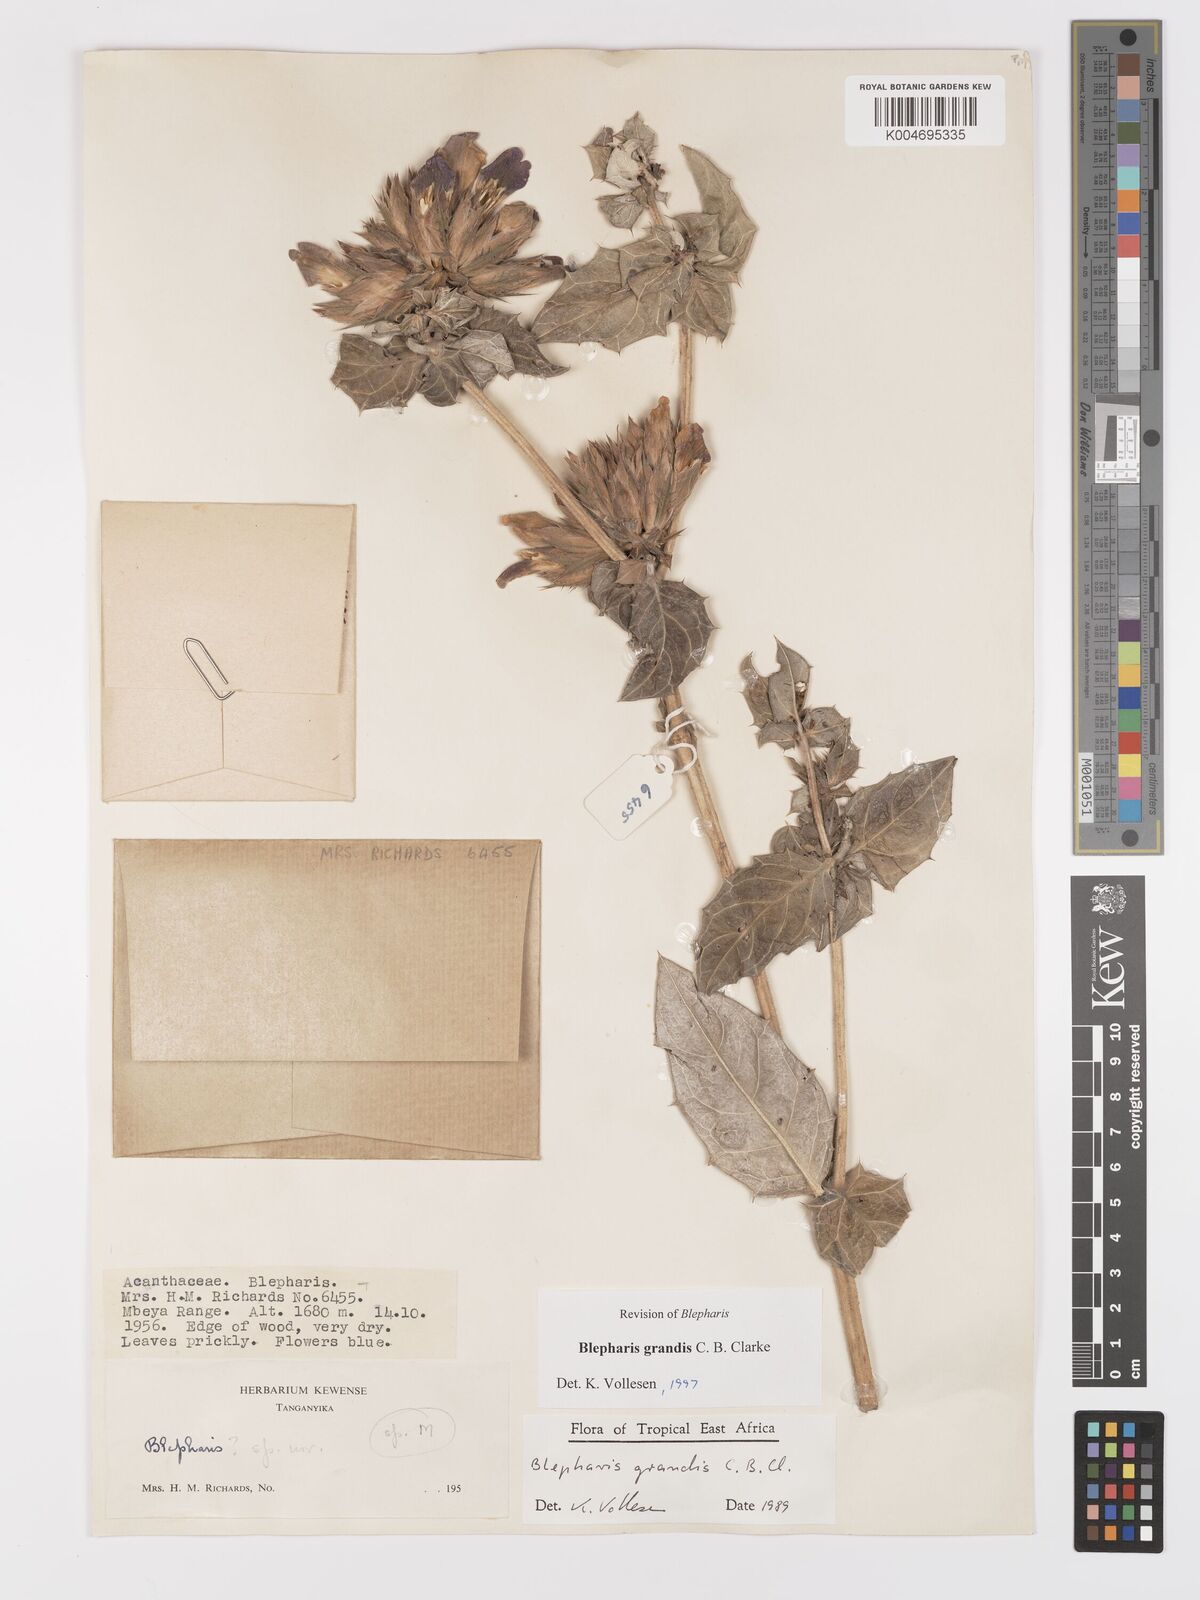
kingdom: Plantae
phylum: Tracheophyta
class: Magnoliopsida
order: Lamiales
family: Acanthaceae
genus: Blepharis
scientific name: Blepharis grandis
